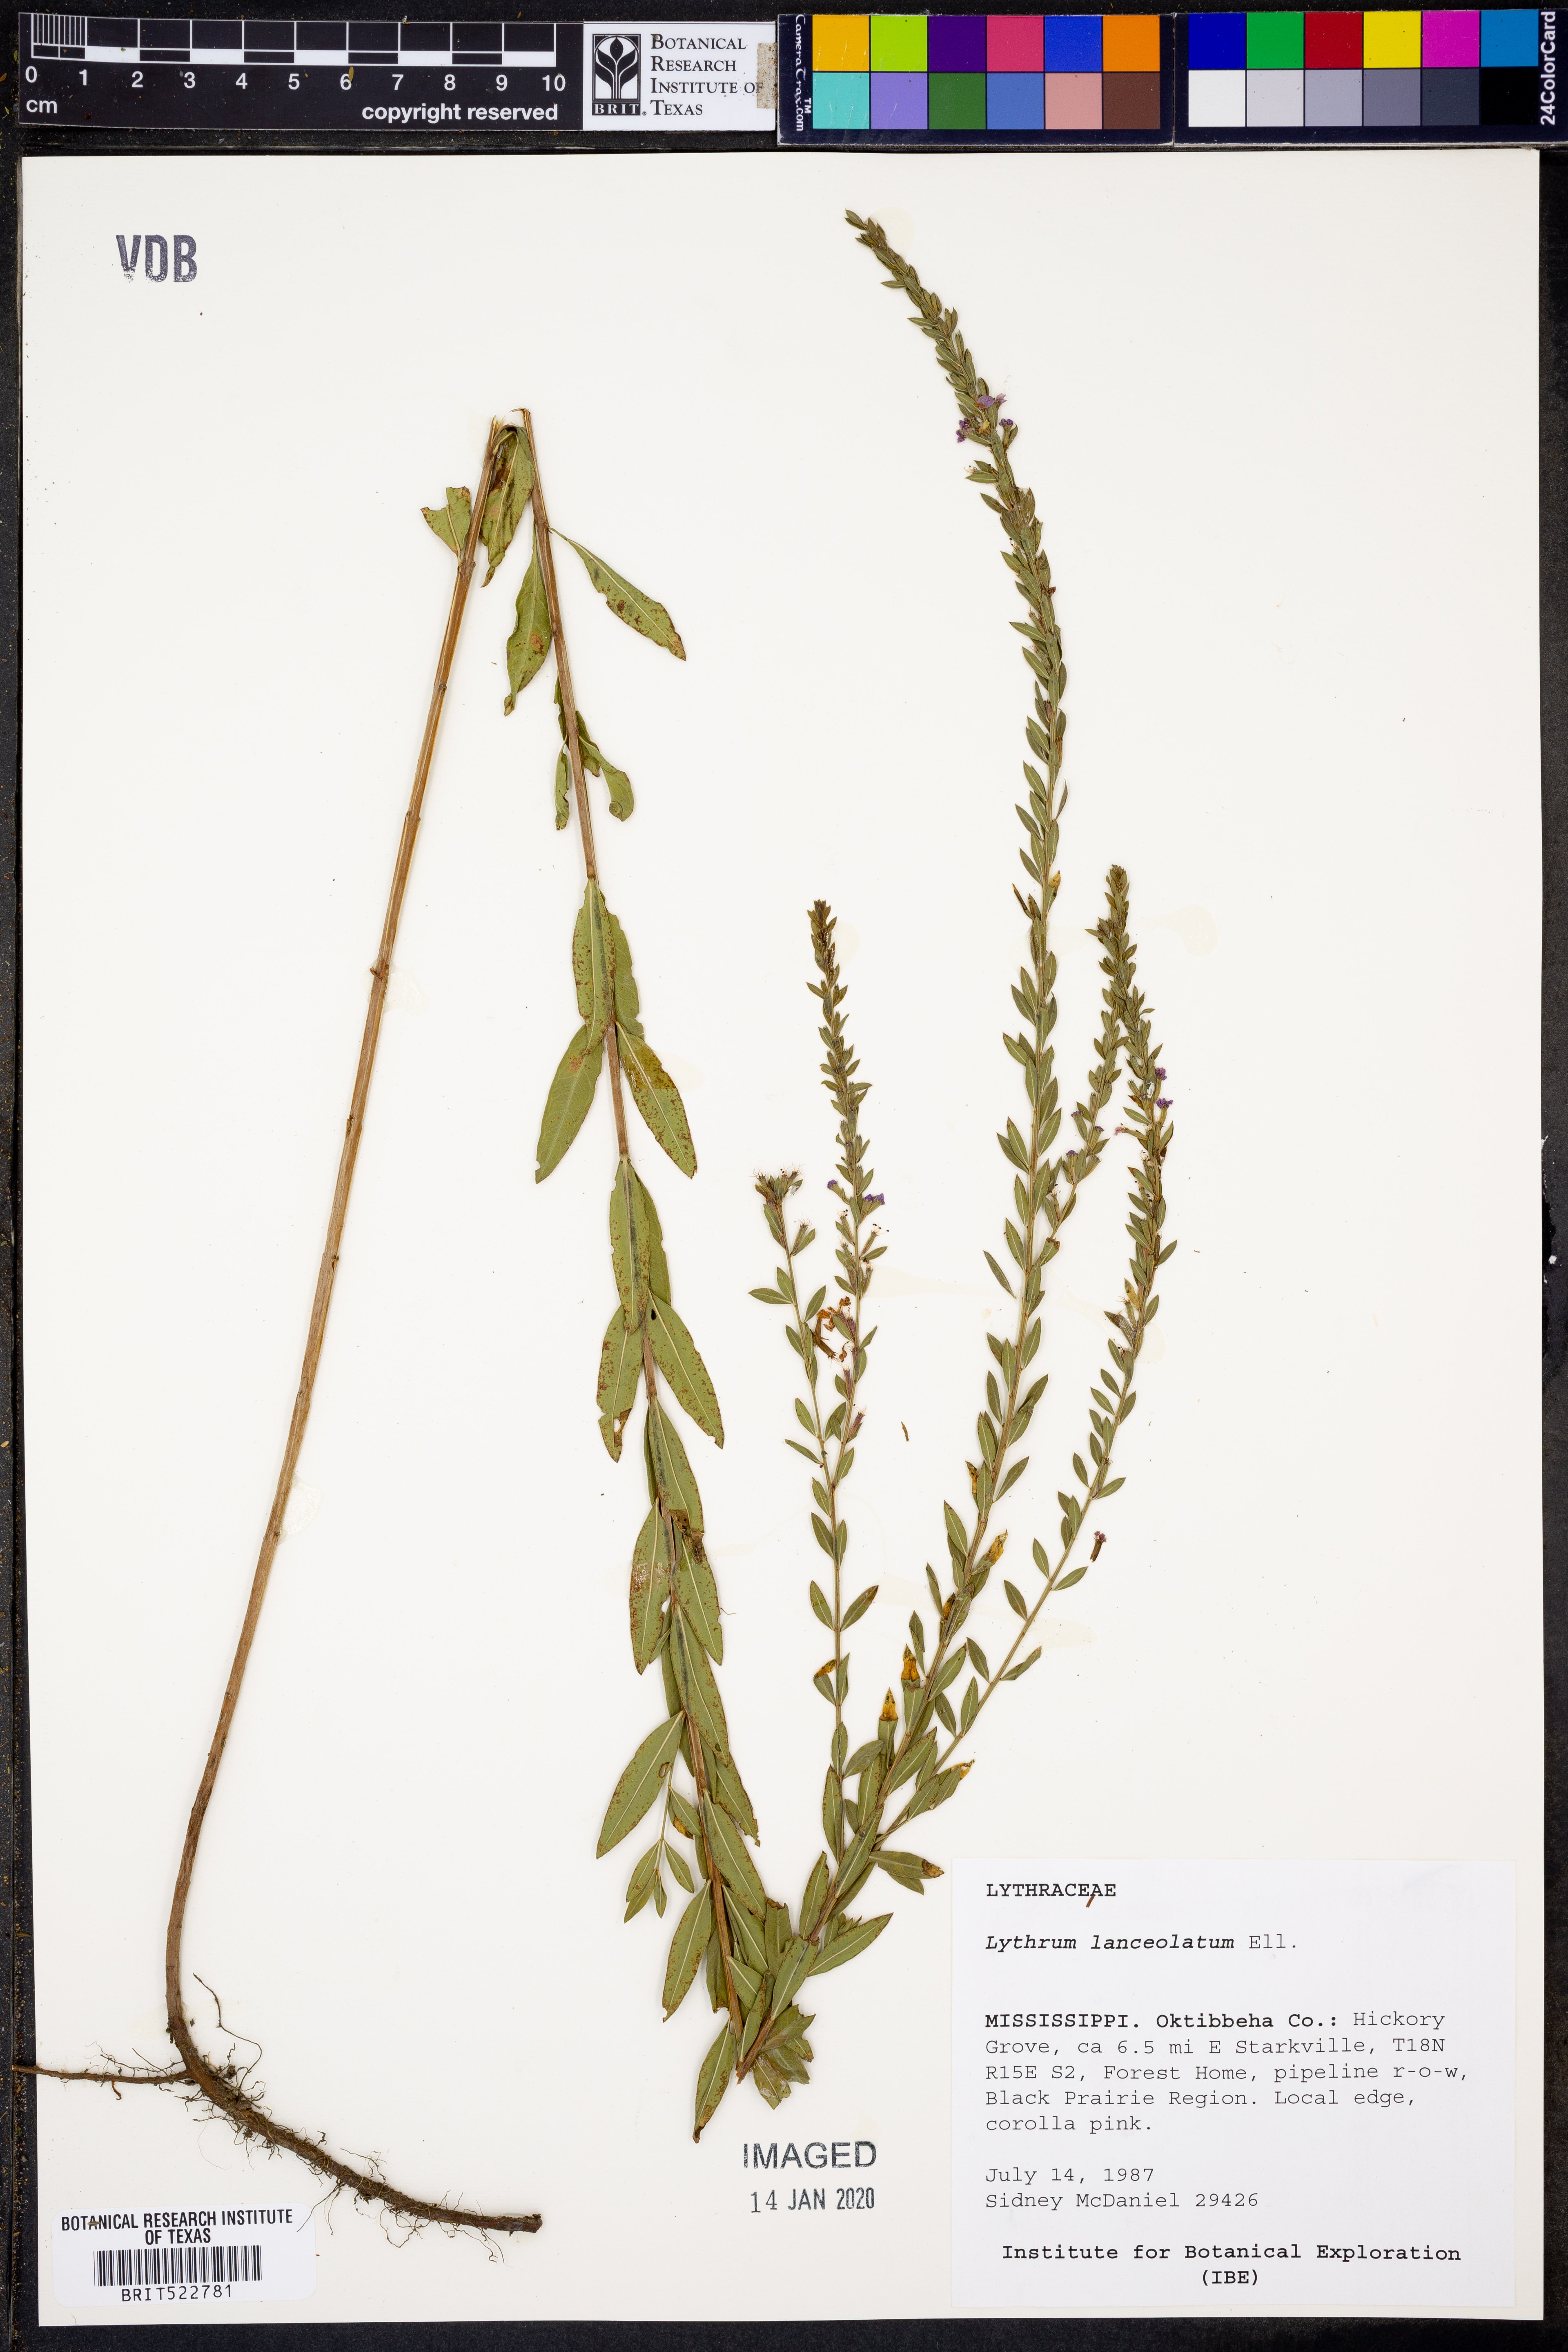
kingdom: Plantae
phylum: Tracheophyta
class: Magnoliopsida
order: Myrtales
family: Lythraceae
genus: Lythrum
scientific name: Lythrum alatum
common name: Winged loosestrife
